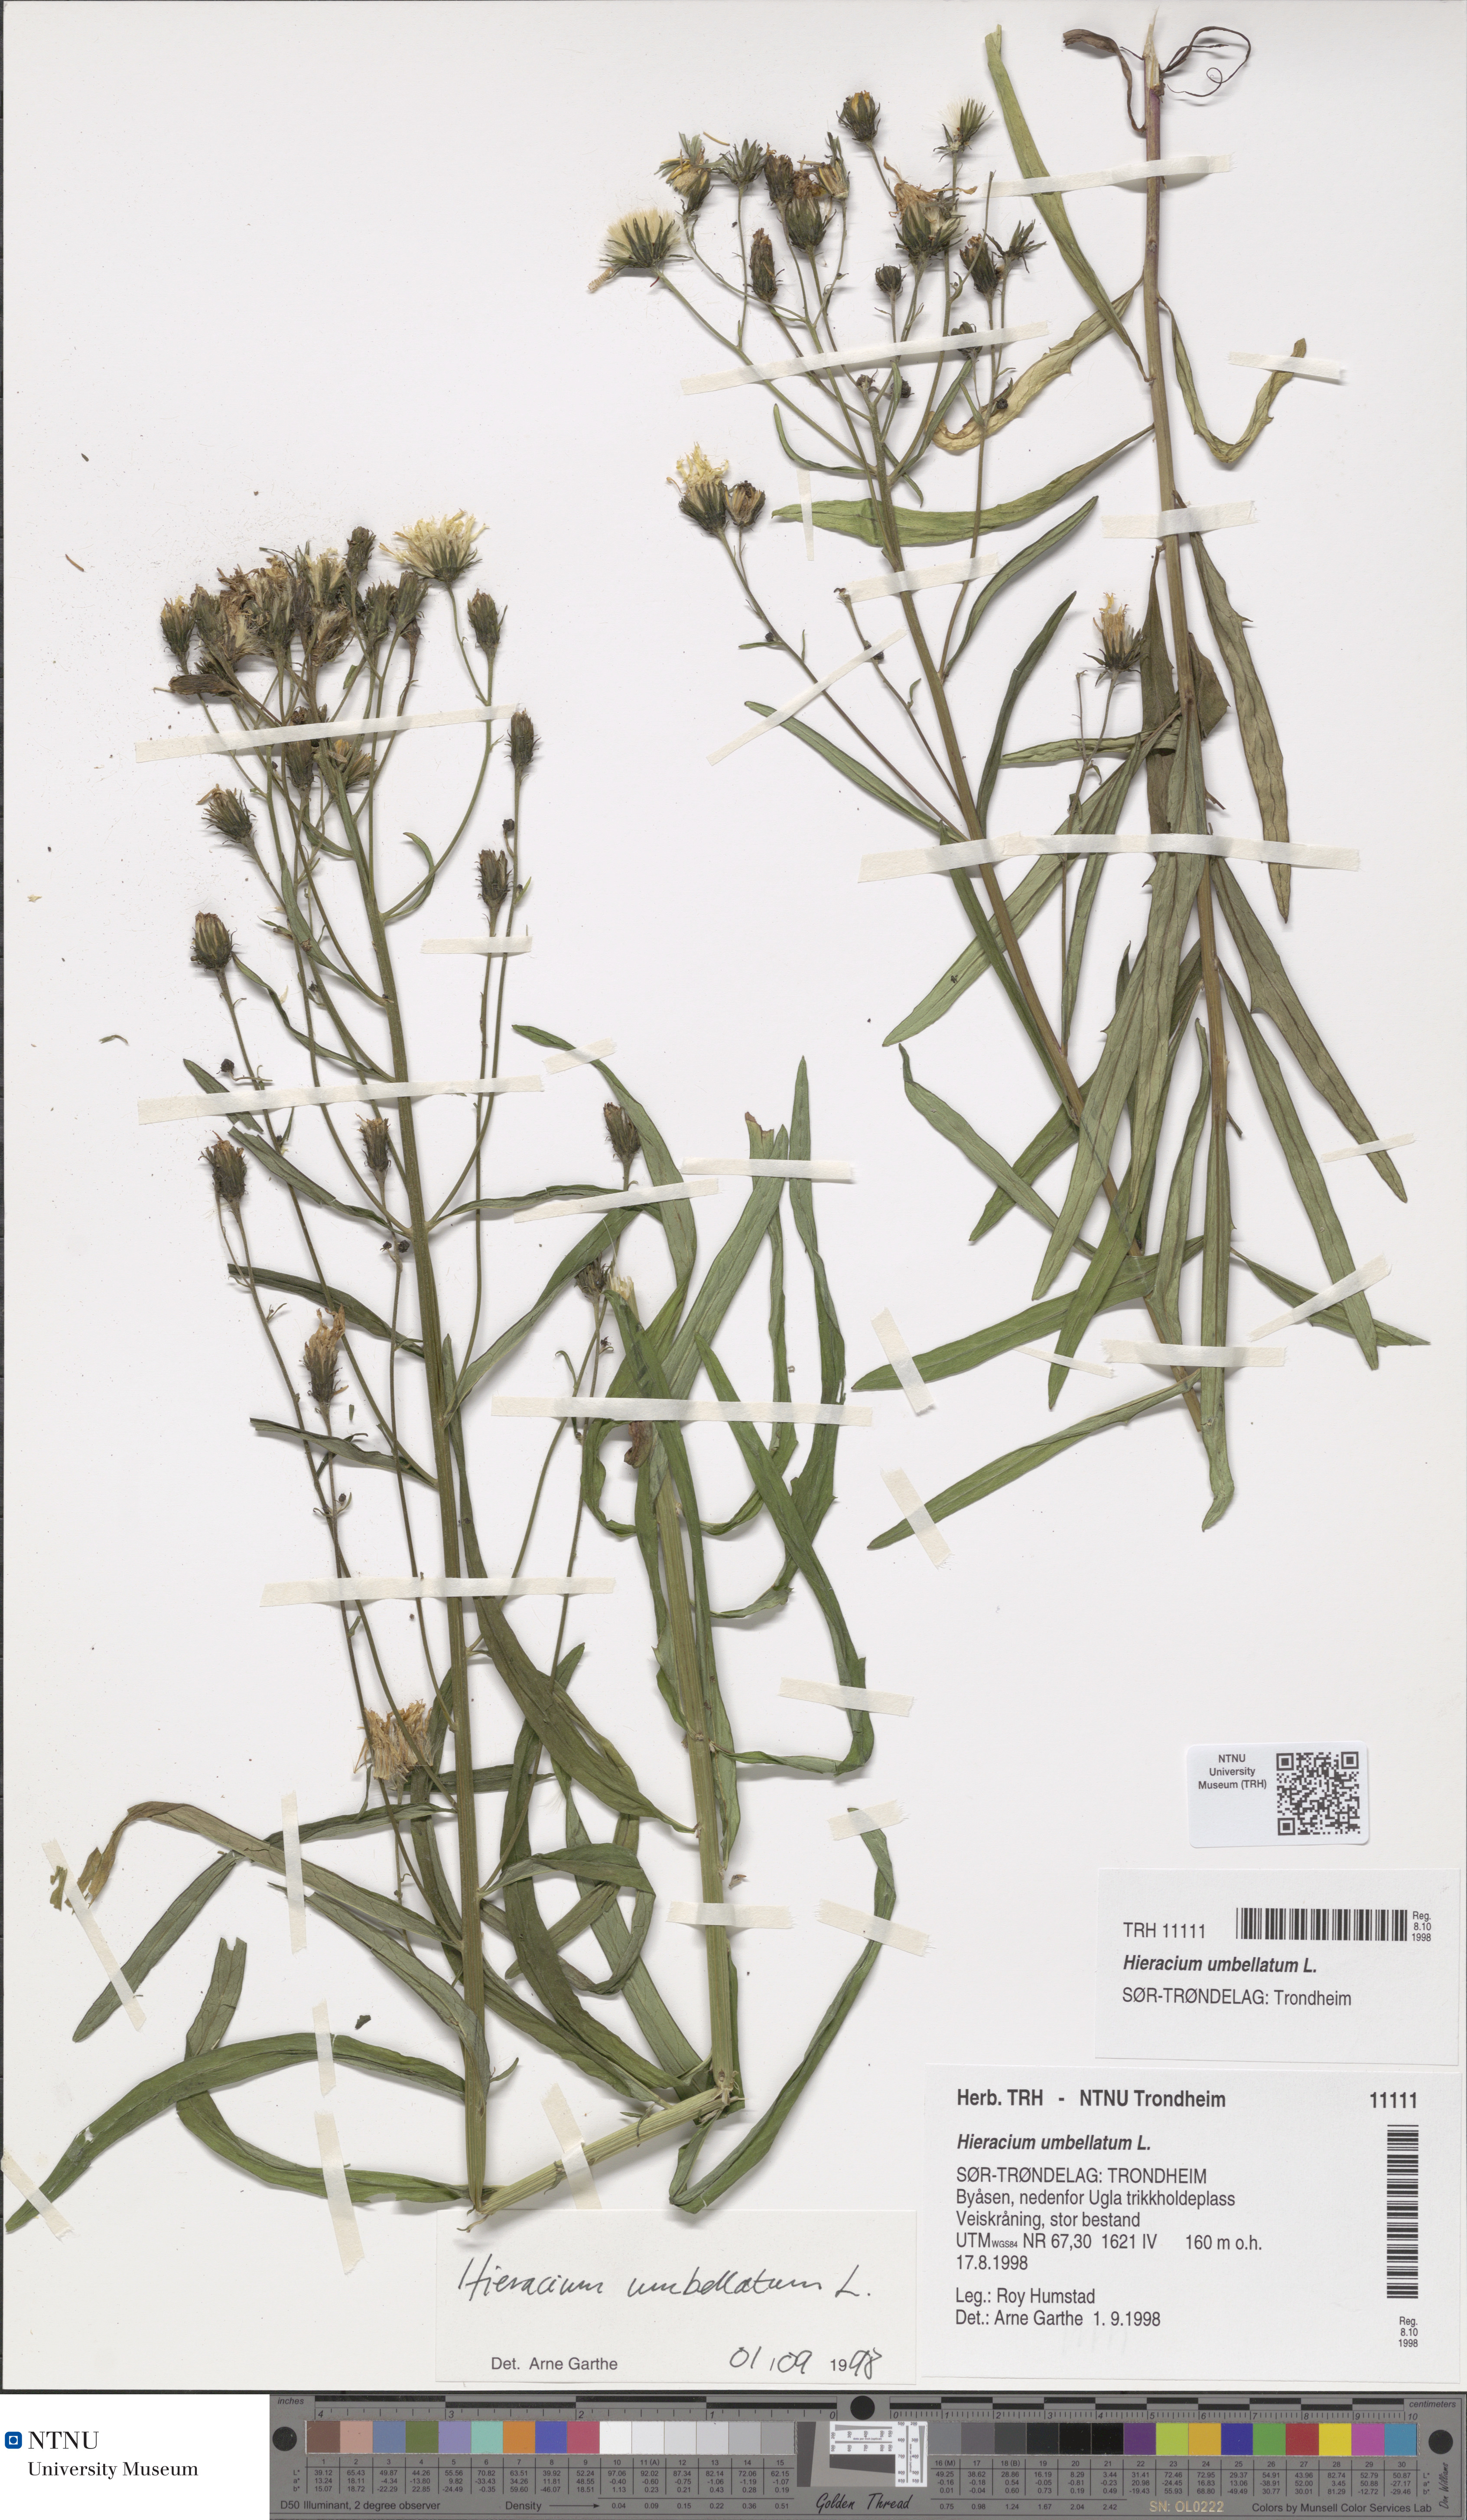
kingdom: Plantae
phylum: Tracheophyta
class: Magnoliopsida
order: Asterales
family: Asteraceae
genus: Hieracium
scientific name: Hieracium umbellatum
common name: Northern hawkweed
